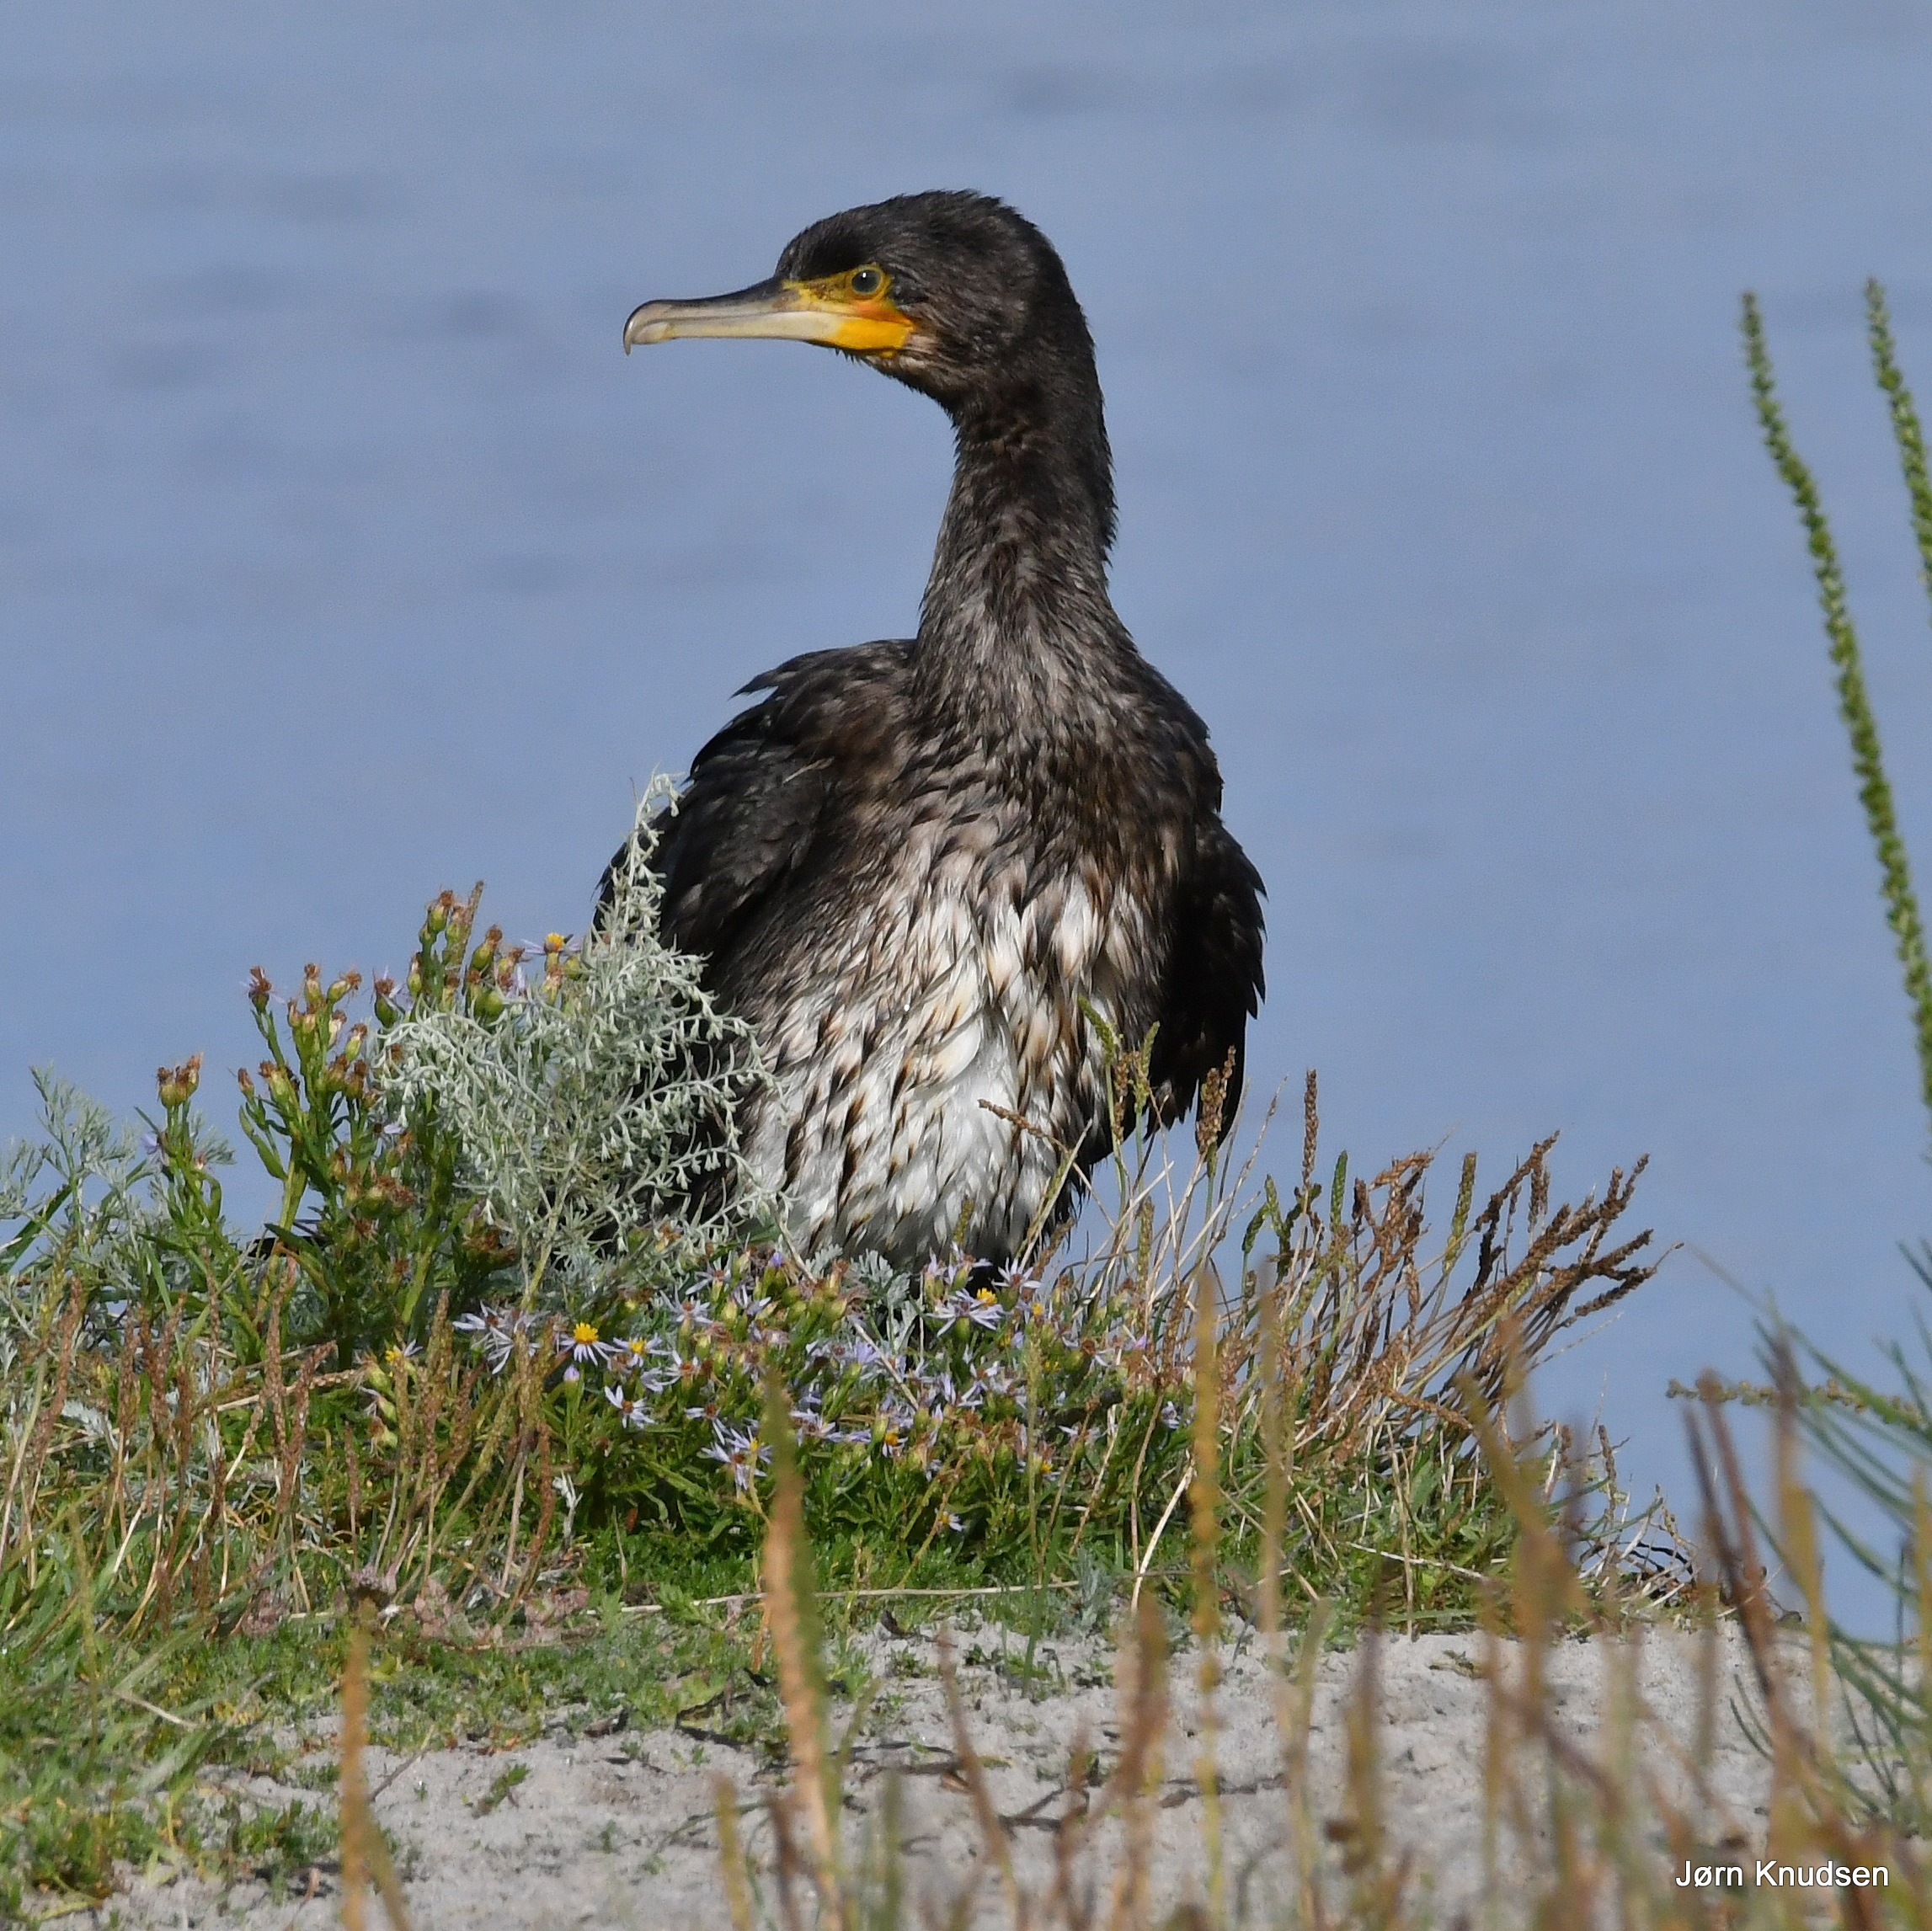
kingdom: Animalia
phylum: Chordata
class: Aves
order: Suliformes
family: Phalacrocoracidae
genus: Phalacrocorax
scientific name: Phalacrocorax carbo
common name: Skarv
